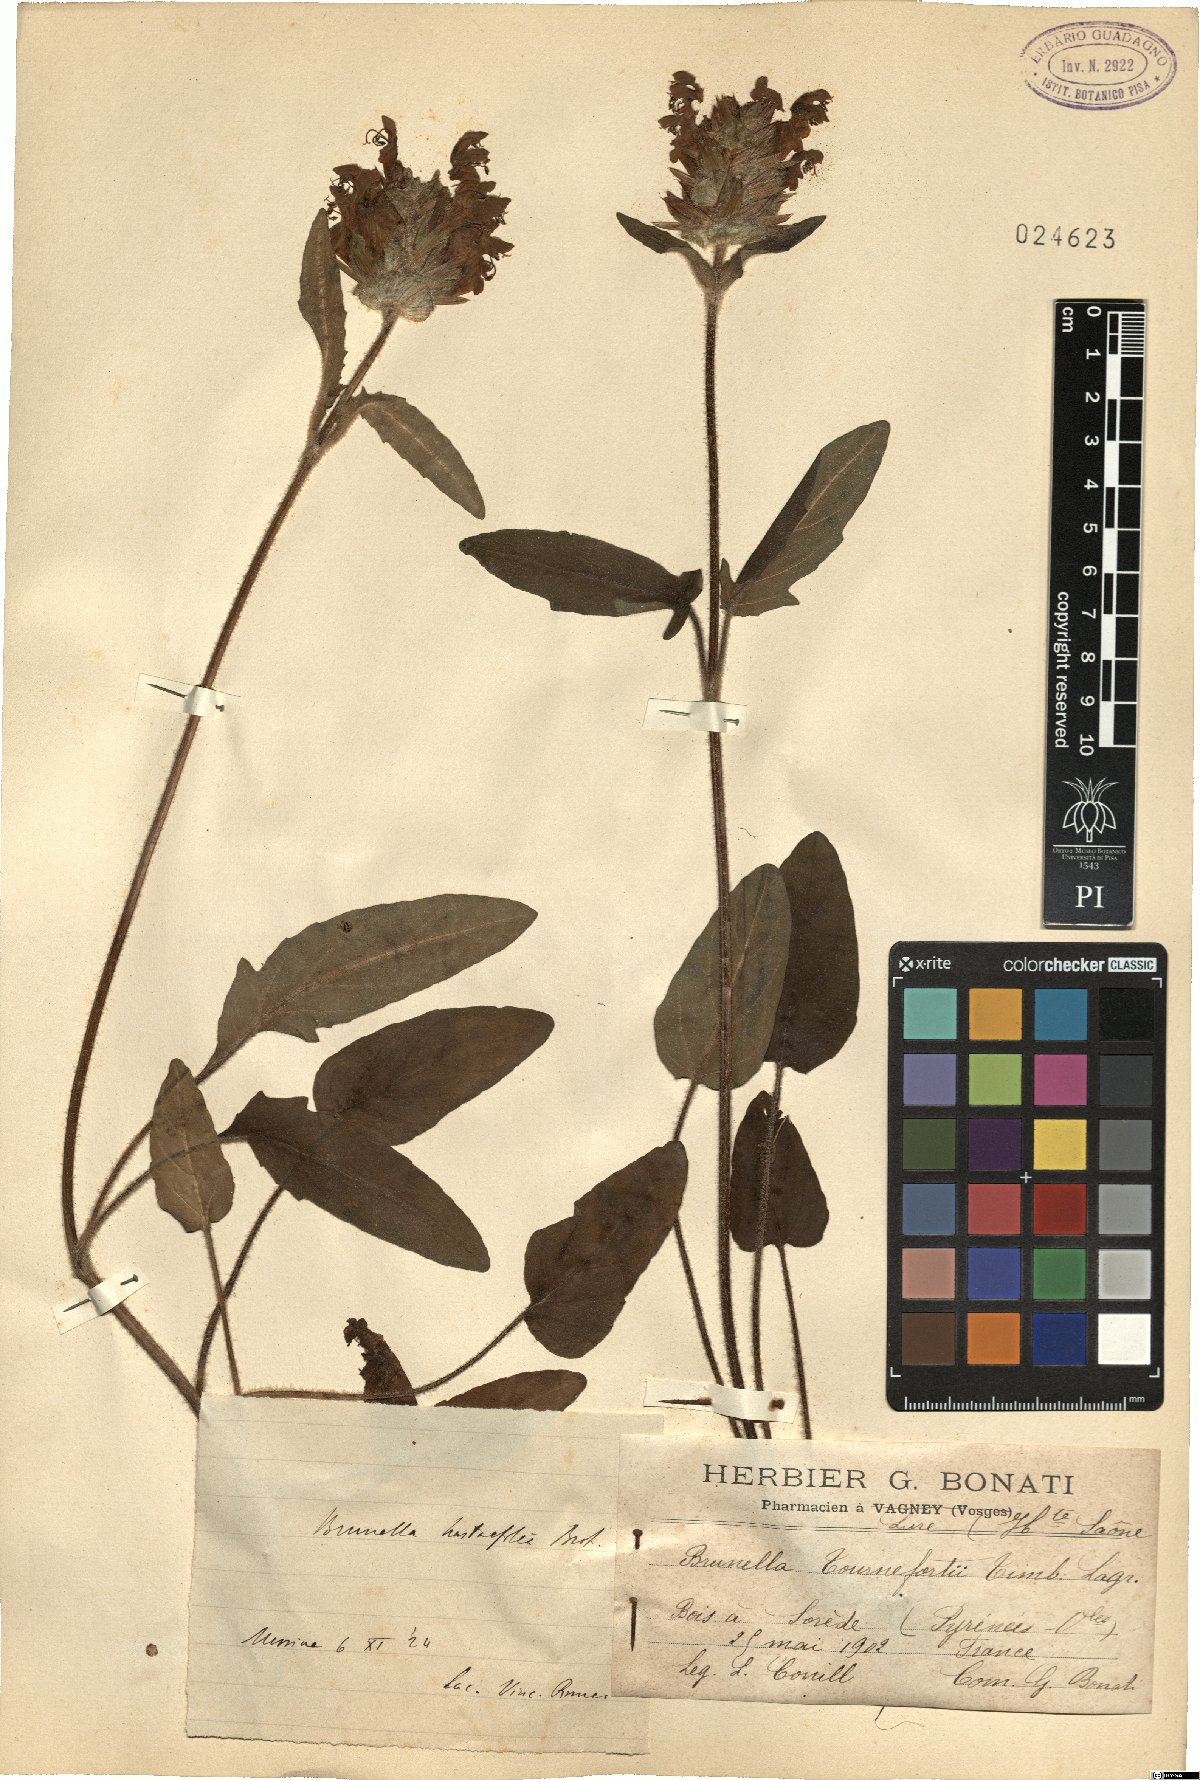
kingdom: Plantae
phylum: Tracheophyta
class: Magnoliopsida
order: Lamiales
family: Lamiaceae
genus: Prunella
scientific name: Prunella grandiflora
